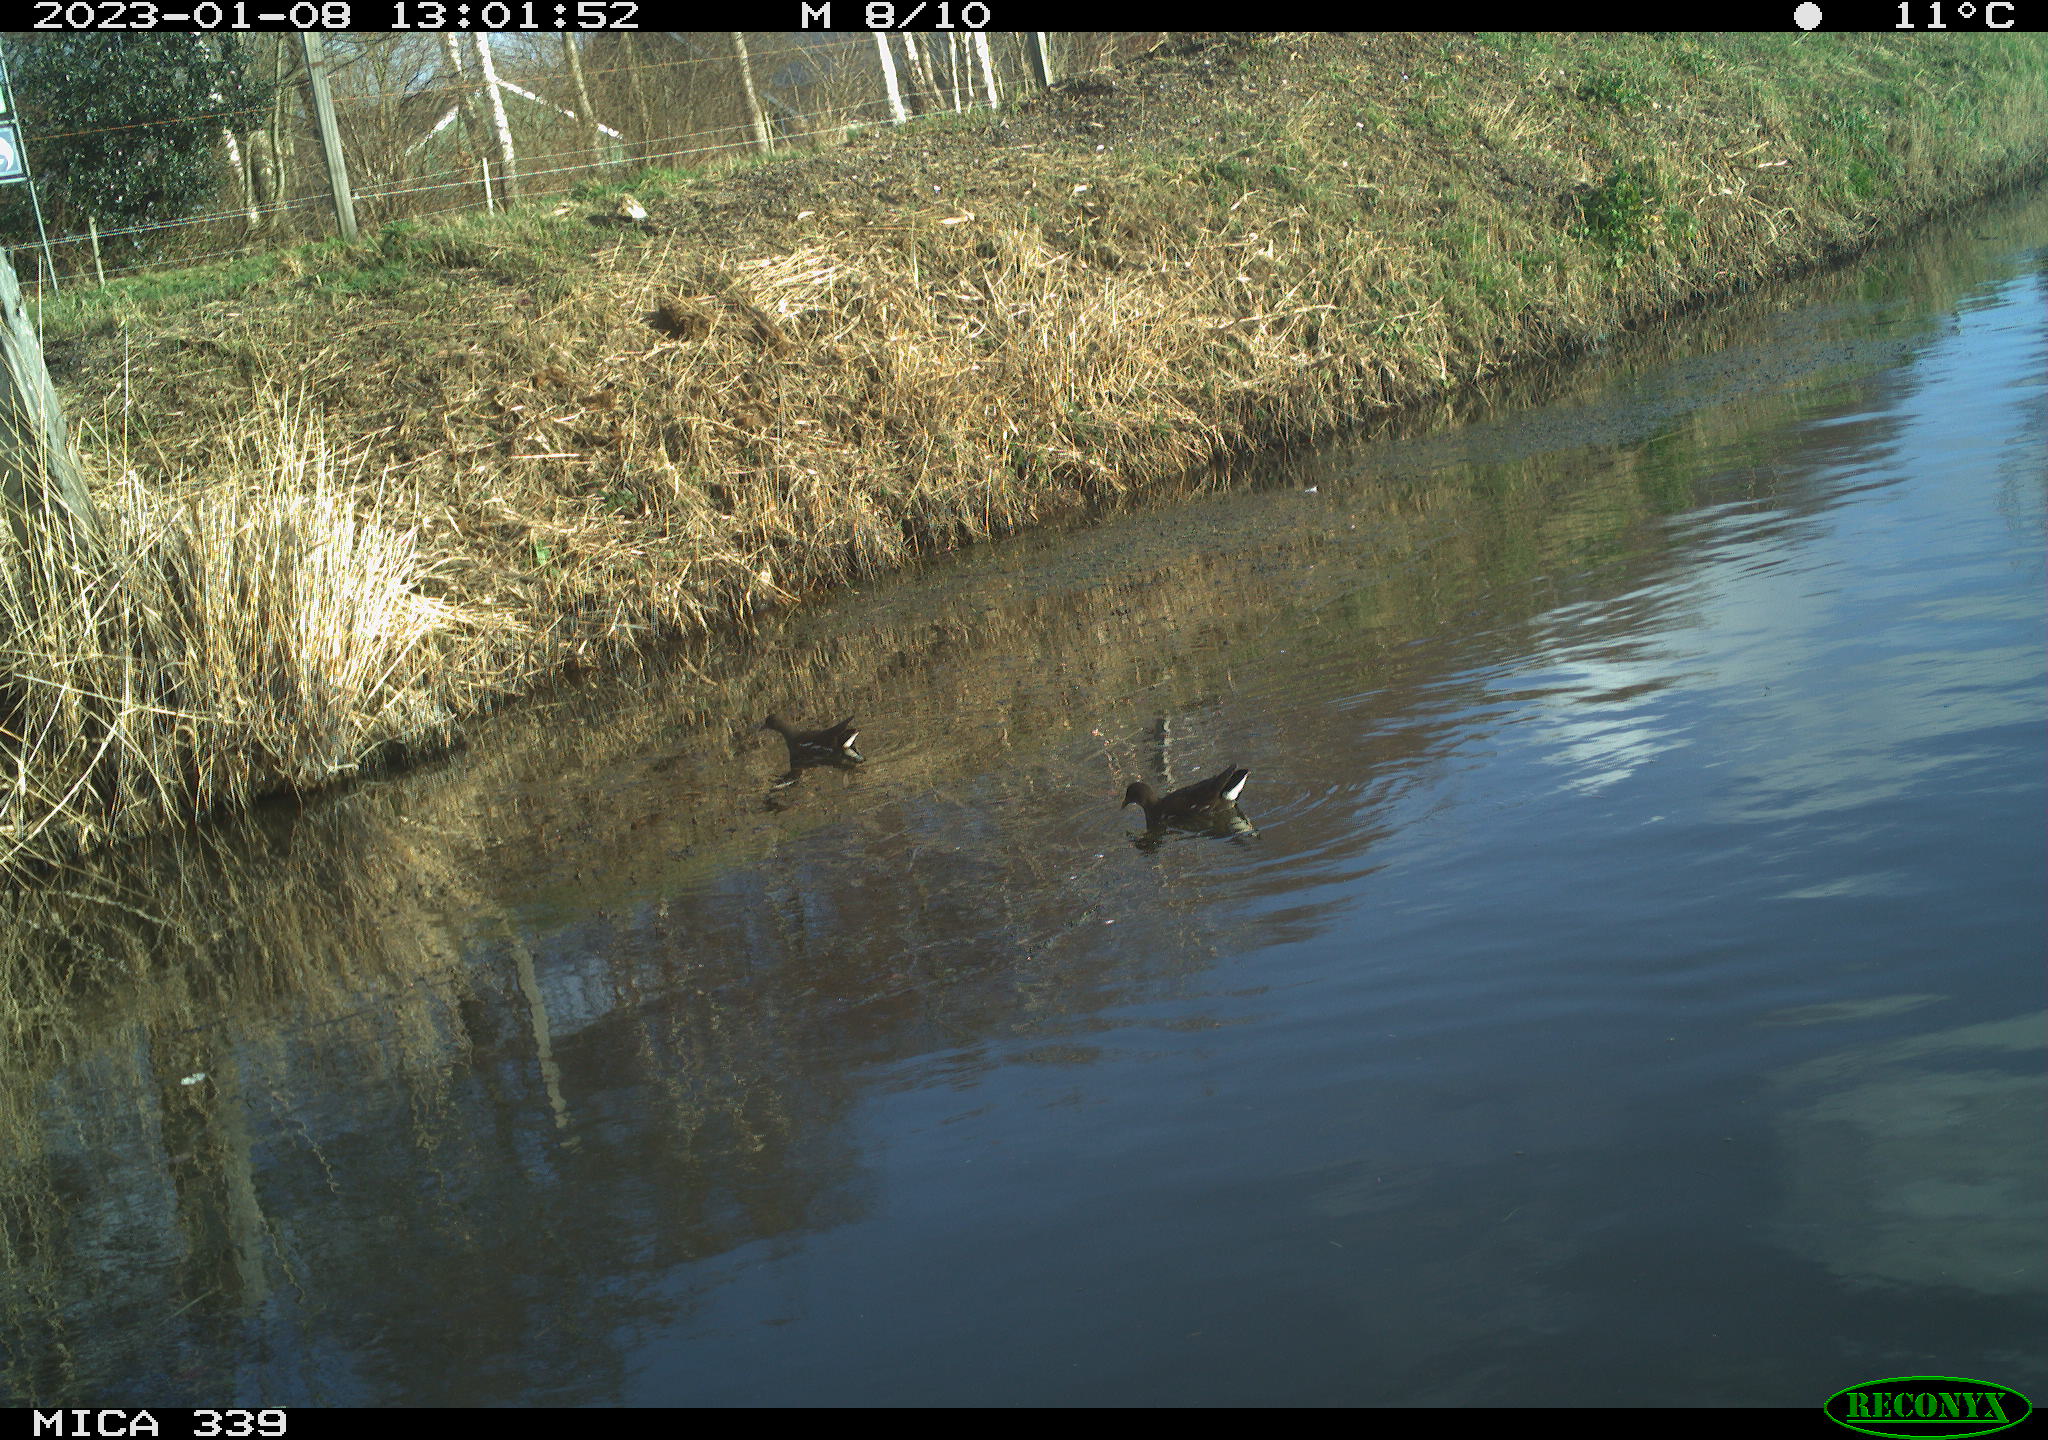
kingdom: Animalia
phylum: Chordata
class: Aves
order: Gruiformes
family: Rallidae
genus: Gallinula
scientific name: Gallinula chloropus
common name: Common moorhen
